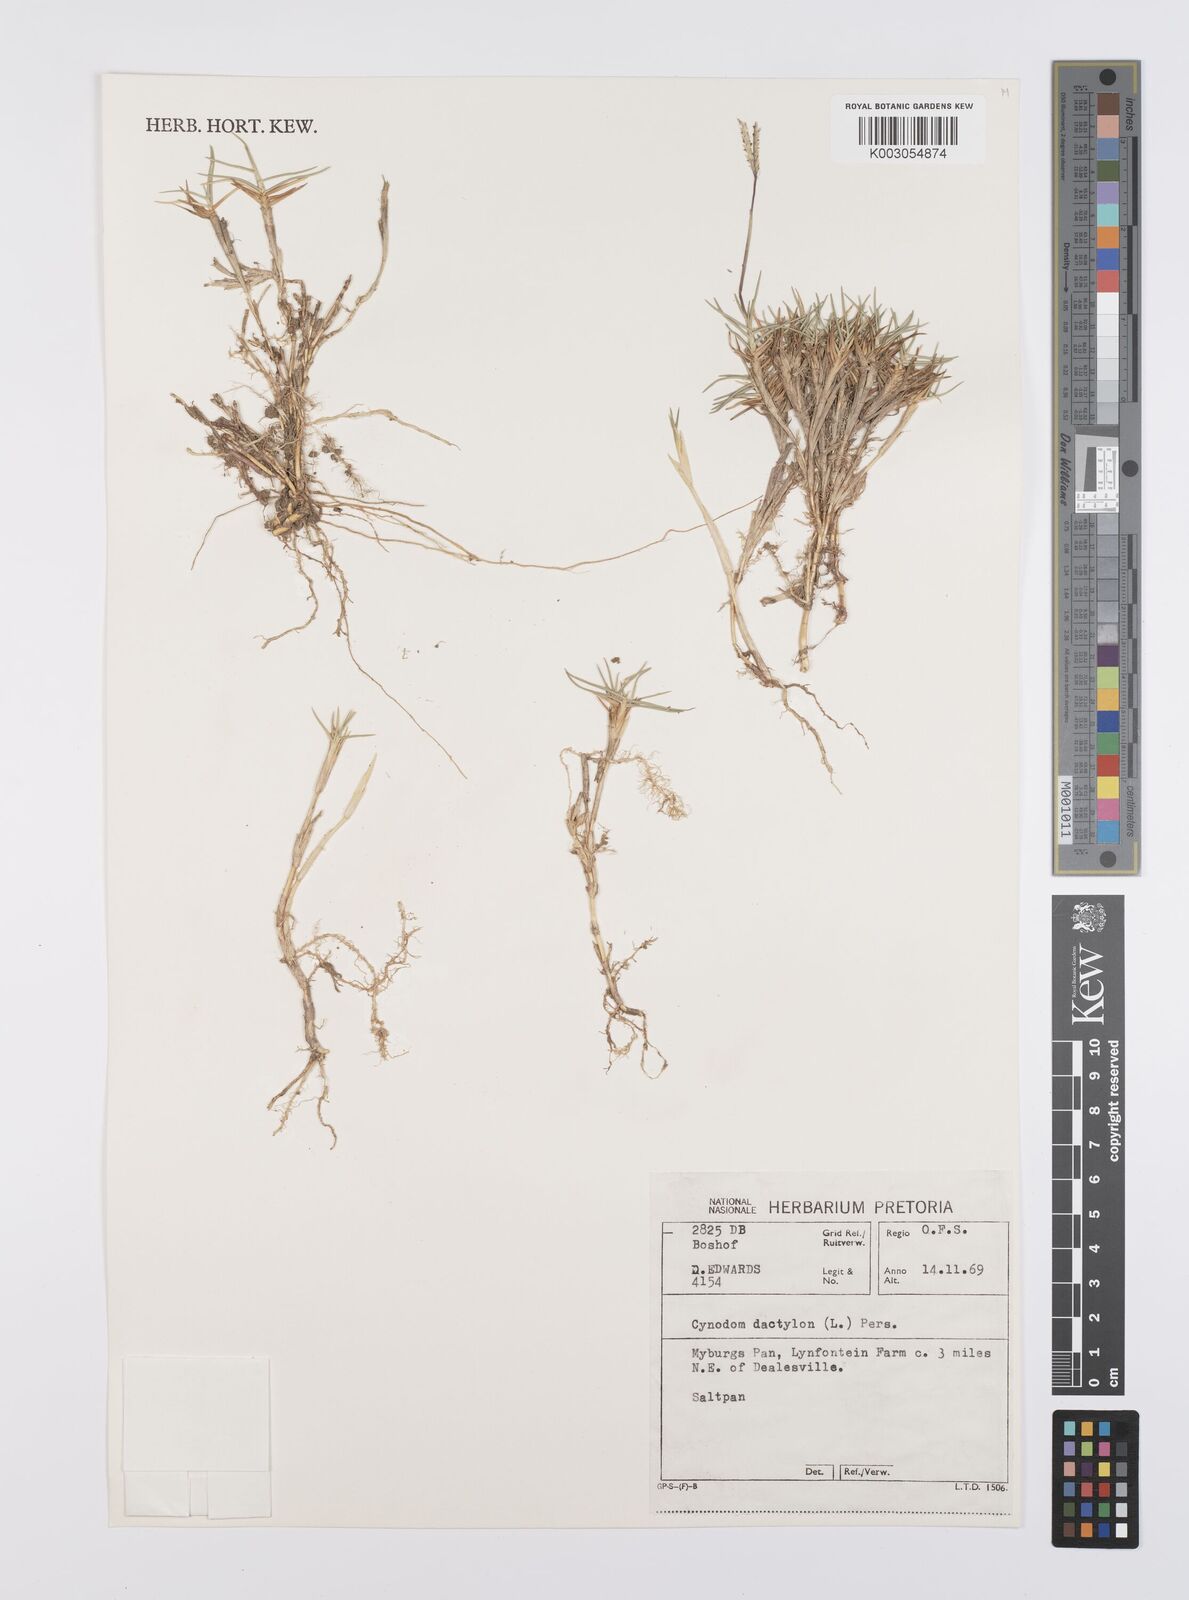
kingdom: Plantae
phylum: Tracheophyta
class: Liliopsida
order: Poales
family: Poaceae
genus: Cynodon
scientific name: Cynodon dactylon
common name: Bermuda grass
